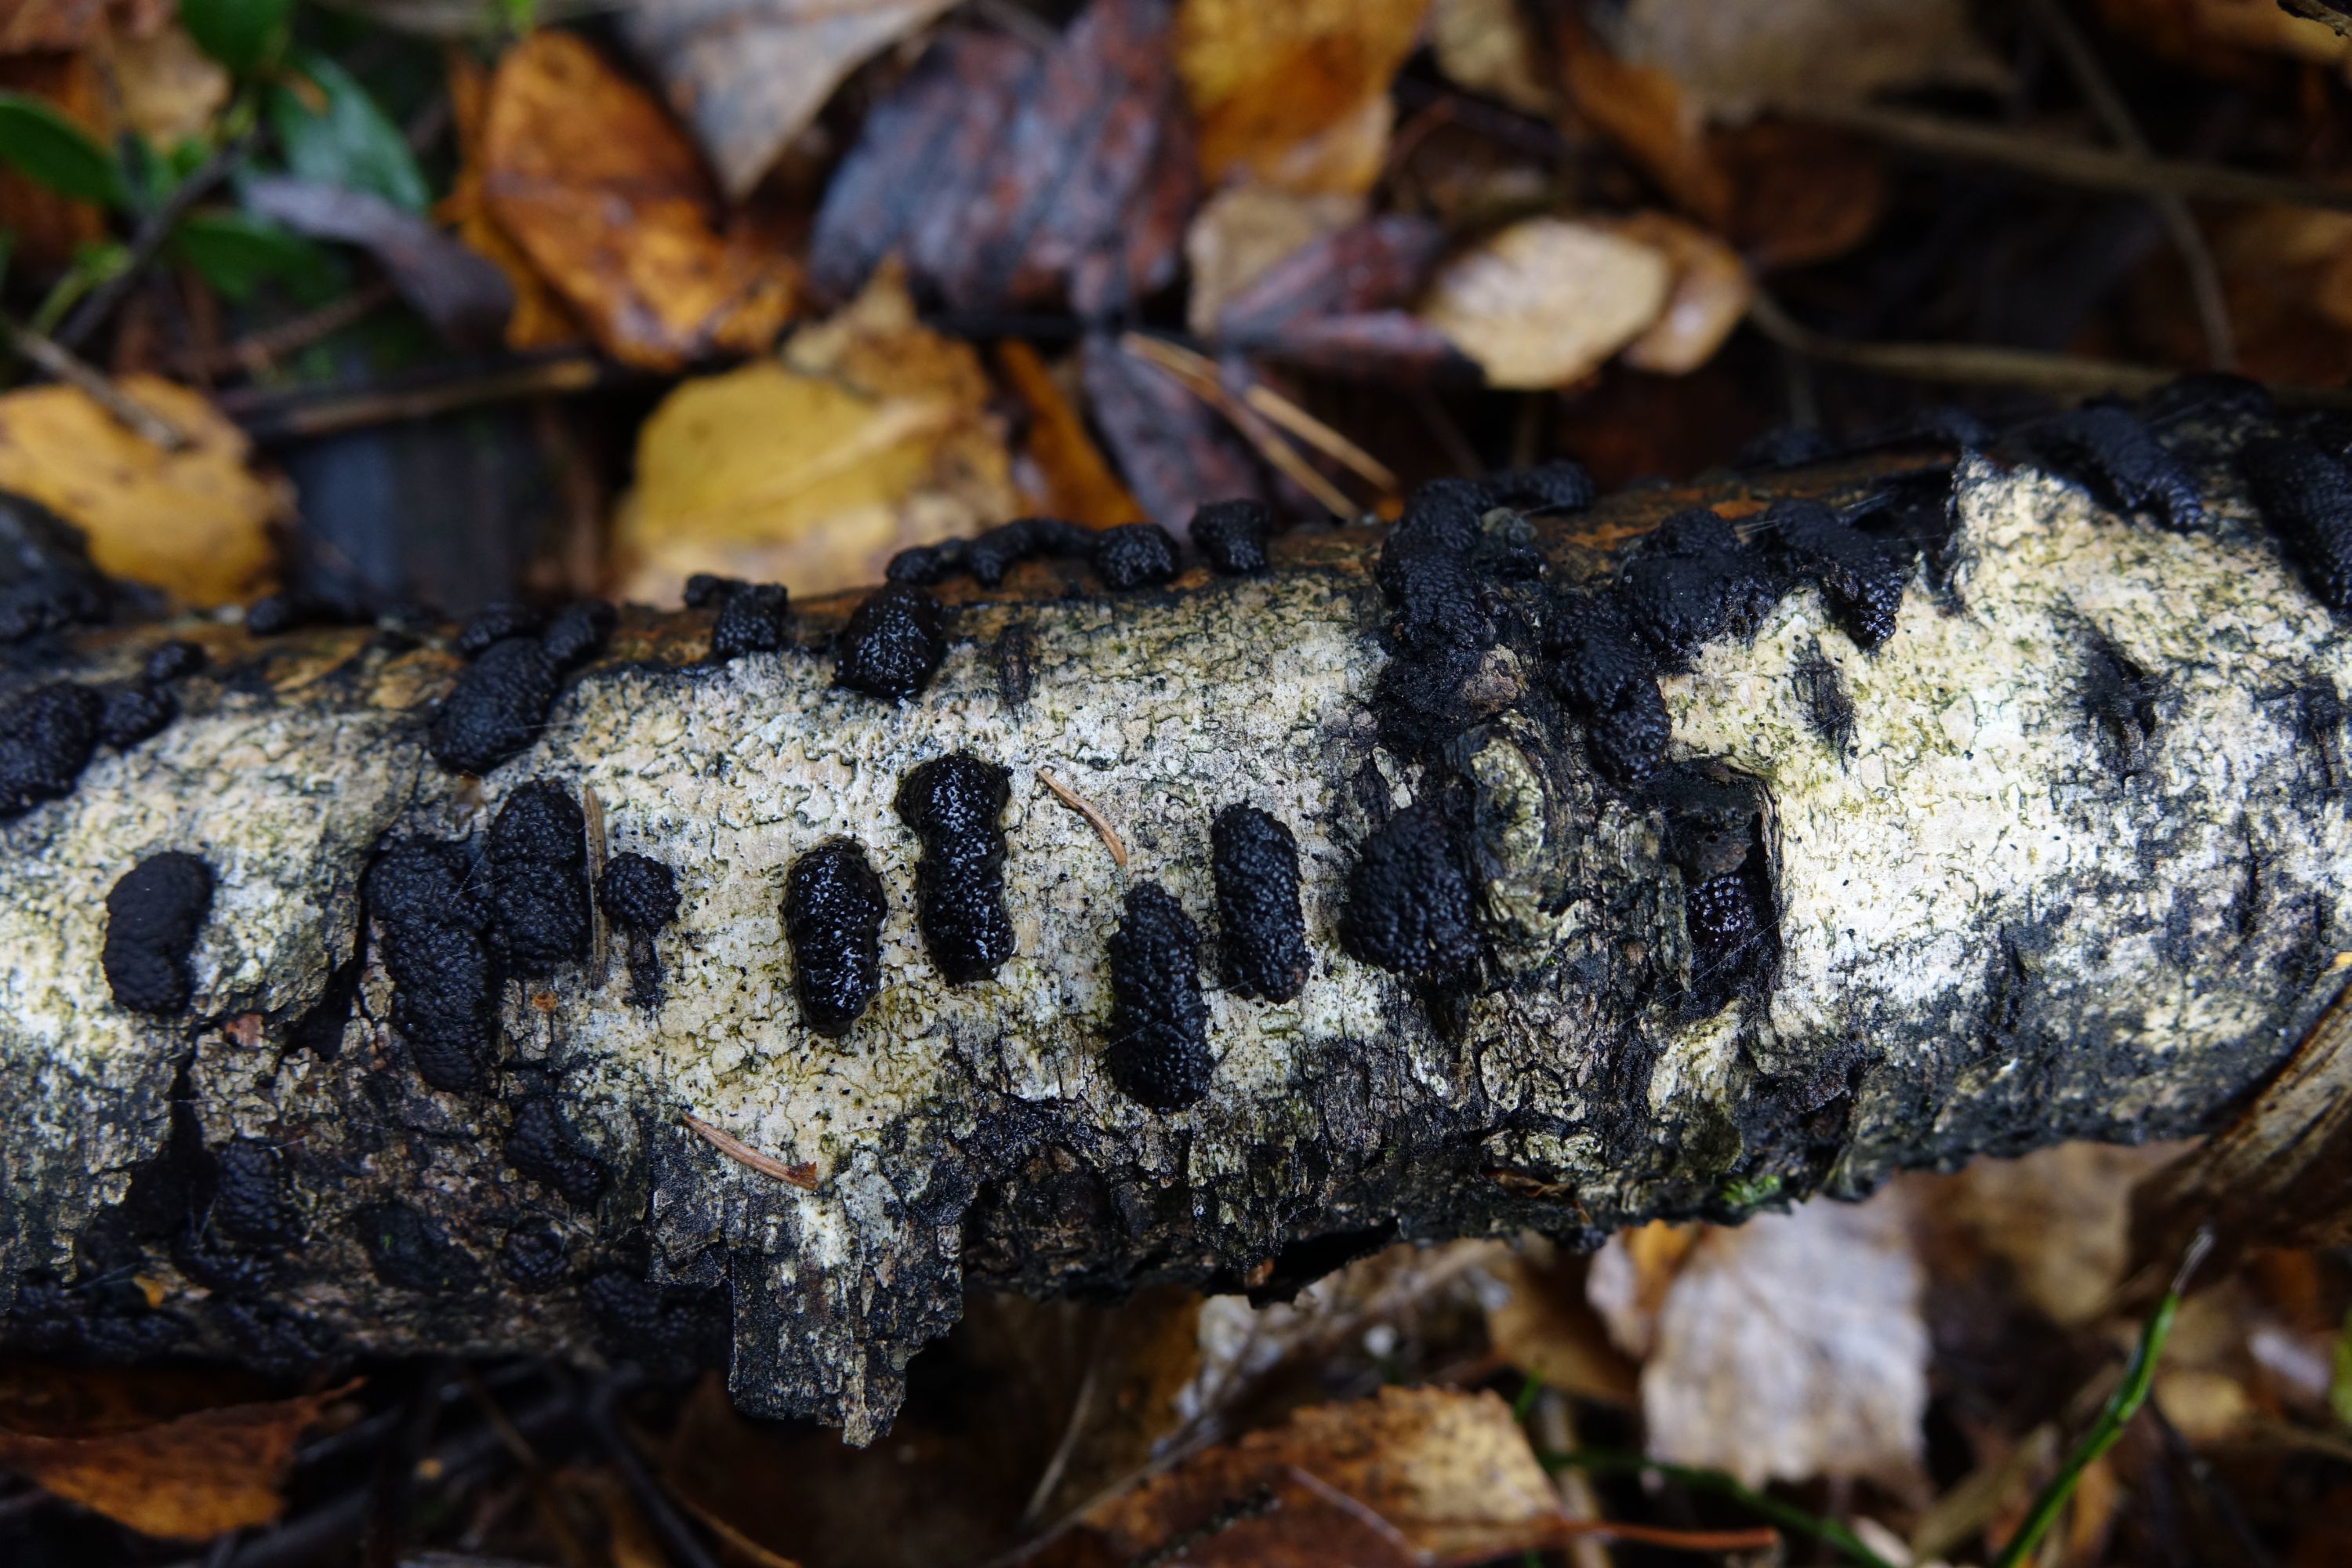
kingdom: Fungi
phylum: Ascomycota
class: Sordariomycetes
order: Xylariales
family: Hypoxylaceae
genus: Jackrogersella
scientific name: Jackrogersella multiformis
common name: Birch woodwart
